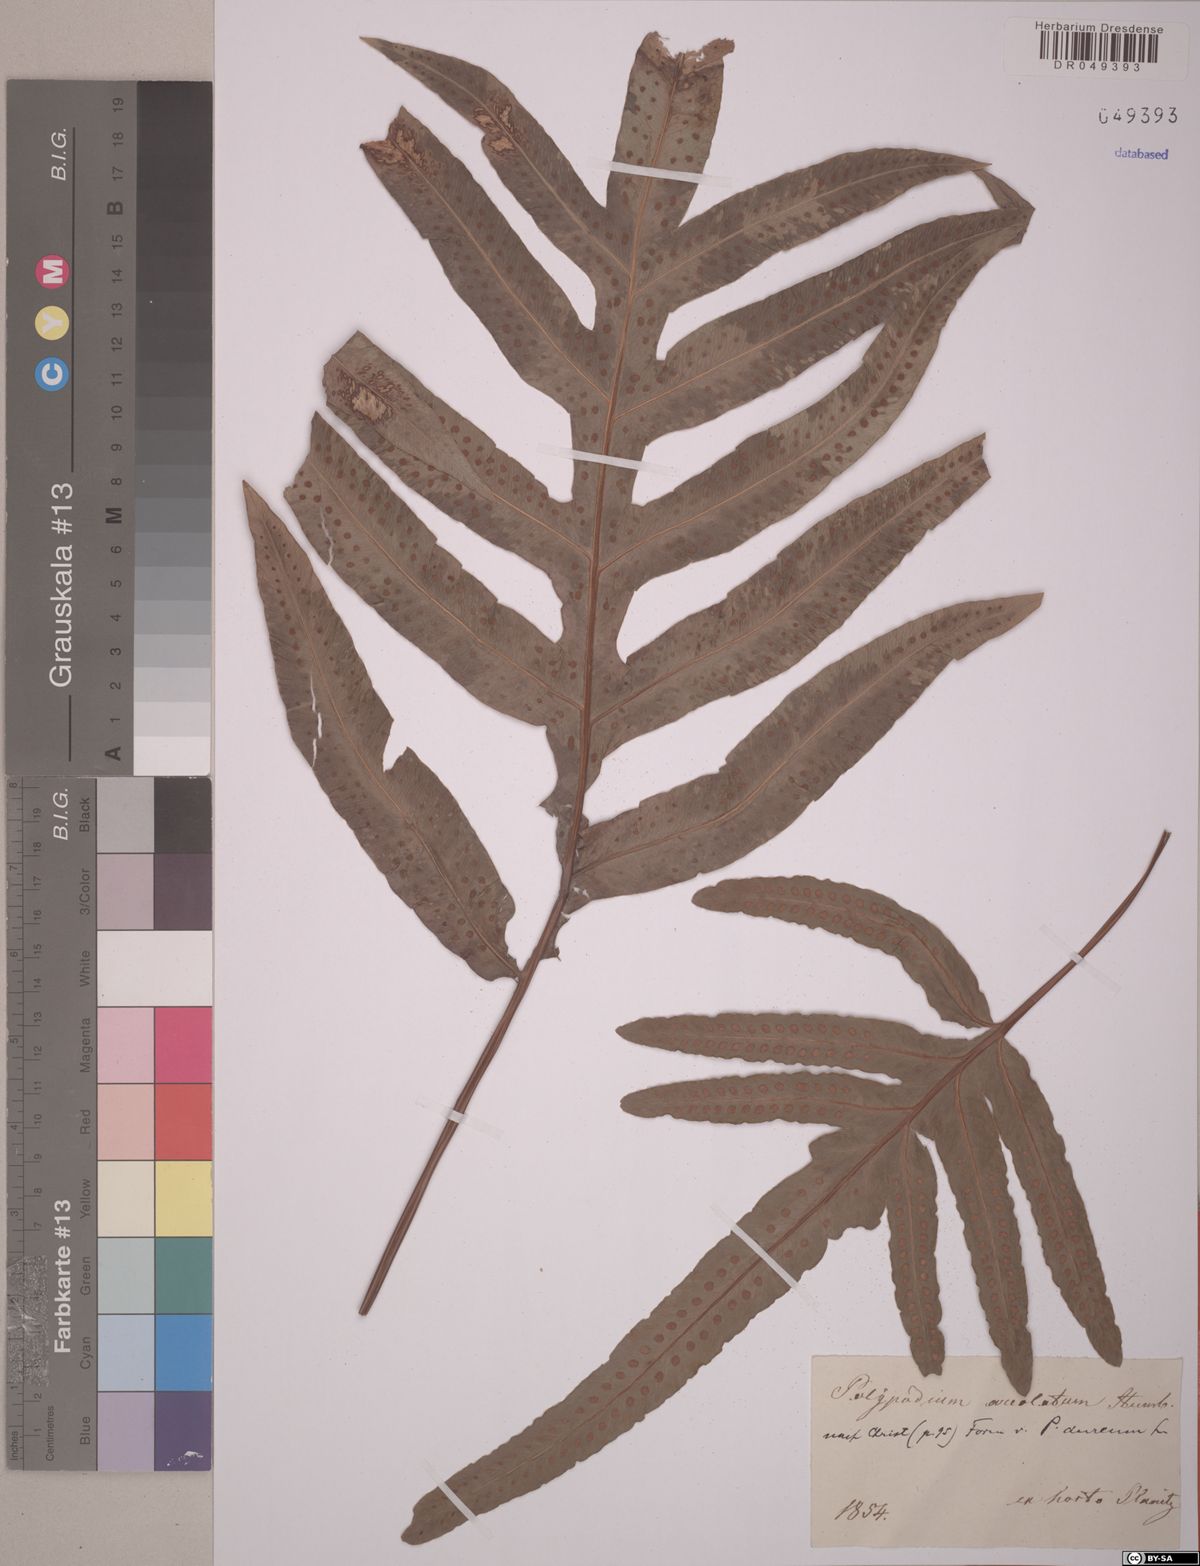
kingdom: Plantae
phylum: Tracheophyta
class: Polypodiopsida
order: Cyatheales
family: Cyatheaceae
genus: Cyathea
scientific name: Cyathea microdonta
